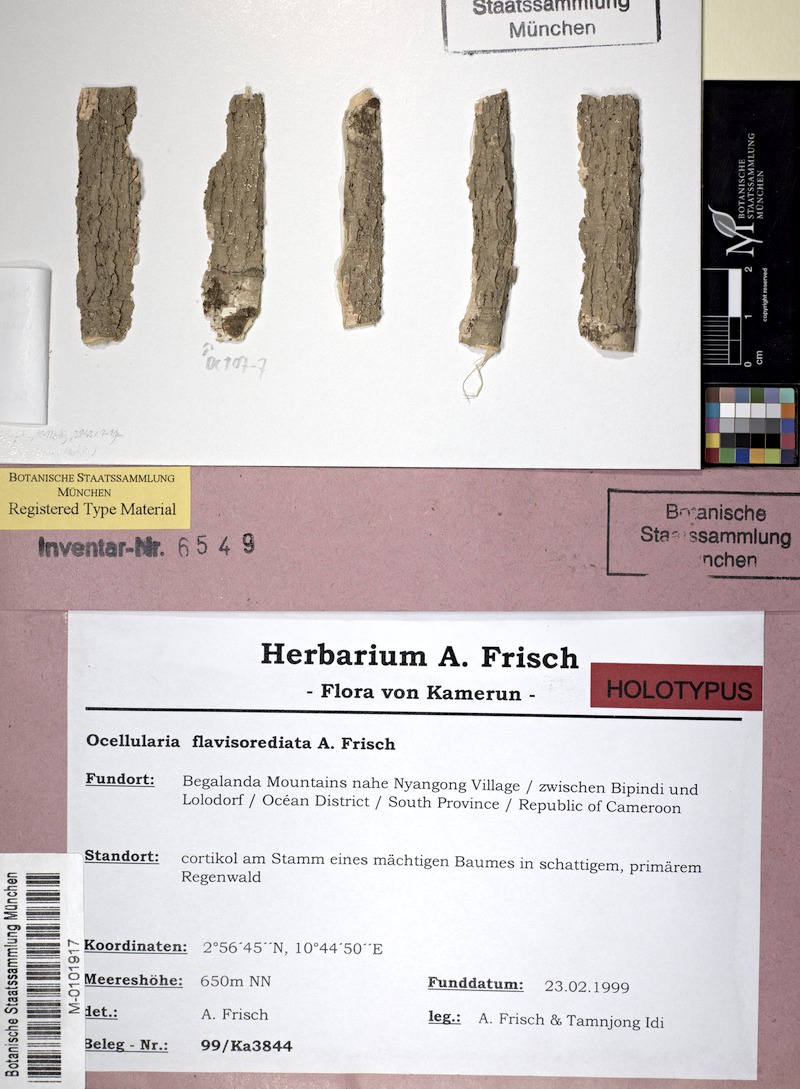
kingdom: Fungi
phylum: Ascomycota
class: Lecanoromycetes
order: Ostropales
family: Graphidaceae
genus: Ocellularia
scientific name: Ocellularia flavisorediata
